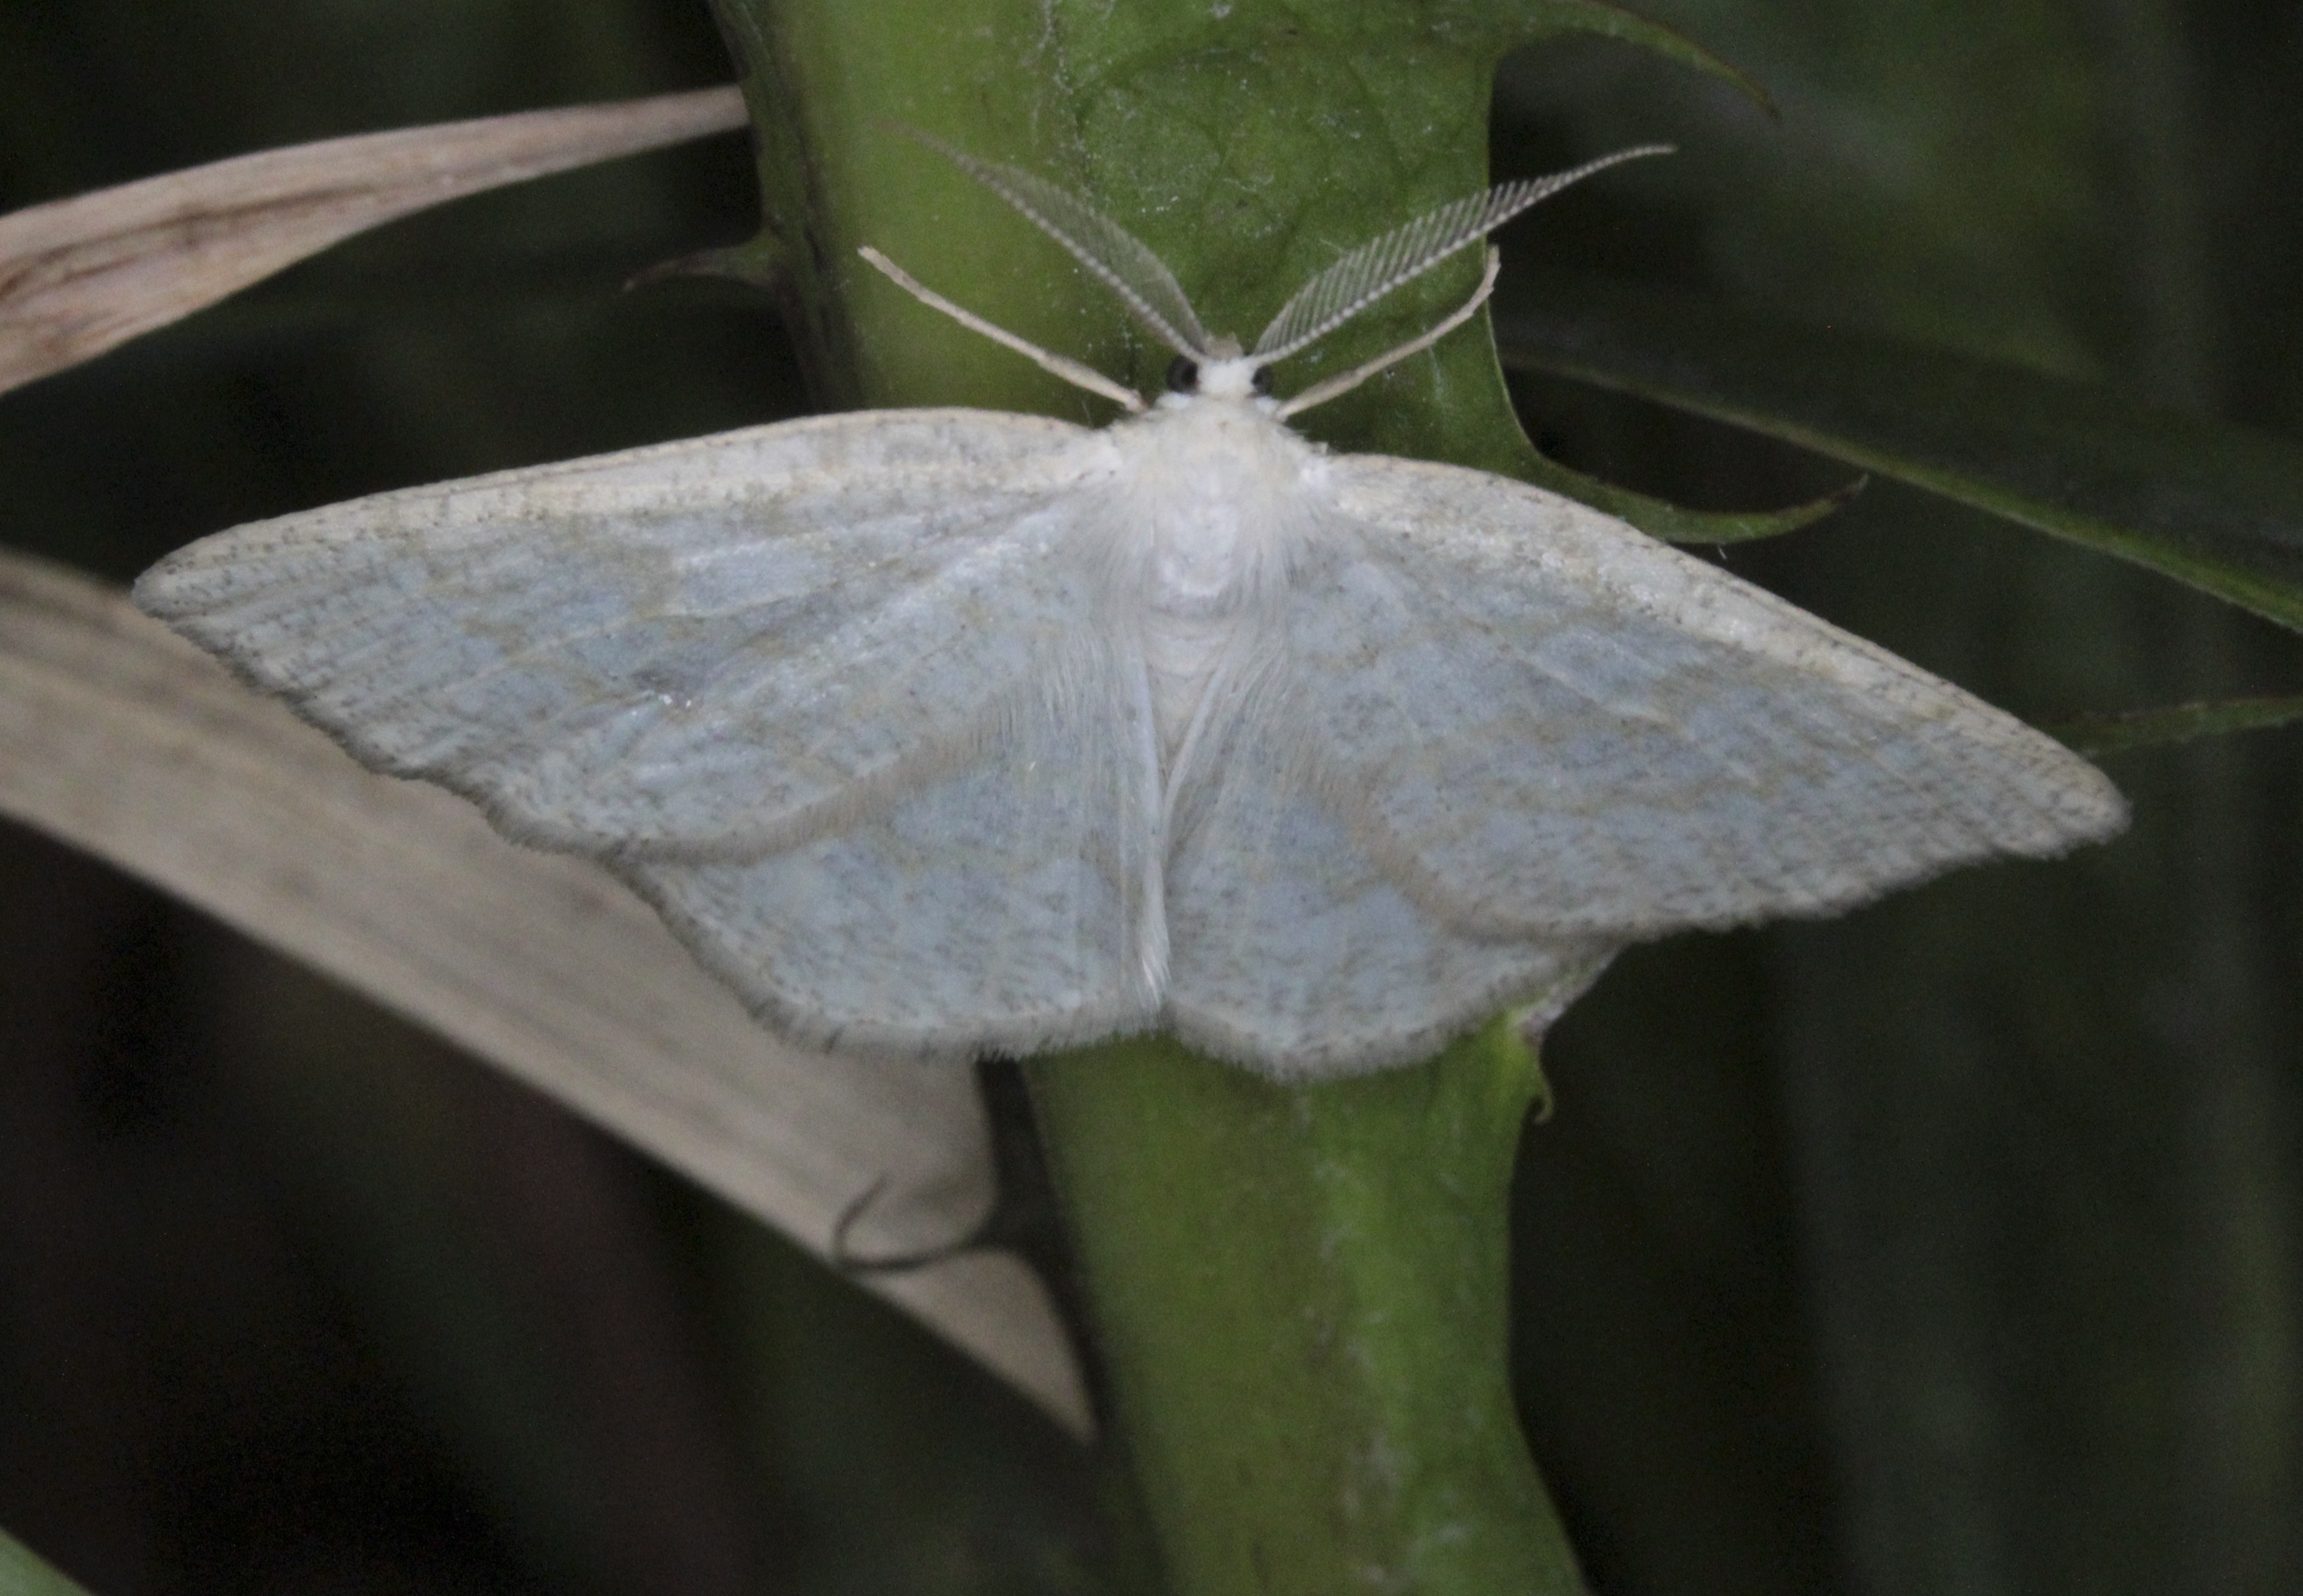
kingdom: Animalia
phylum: Arthropoda
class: Insecta
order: Lepidoptera
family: Geometridae
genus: Cabera
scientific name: Cabera exanthemata
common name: Common wave
